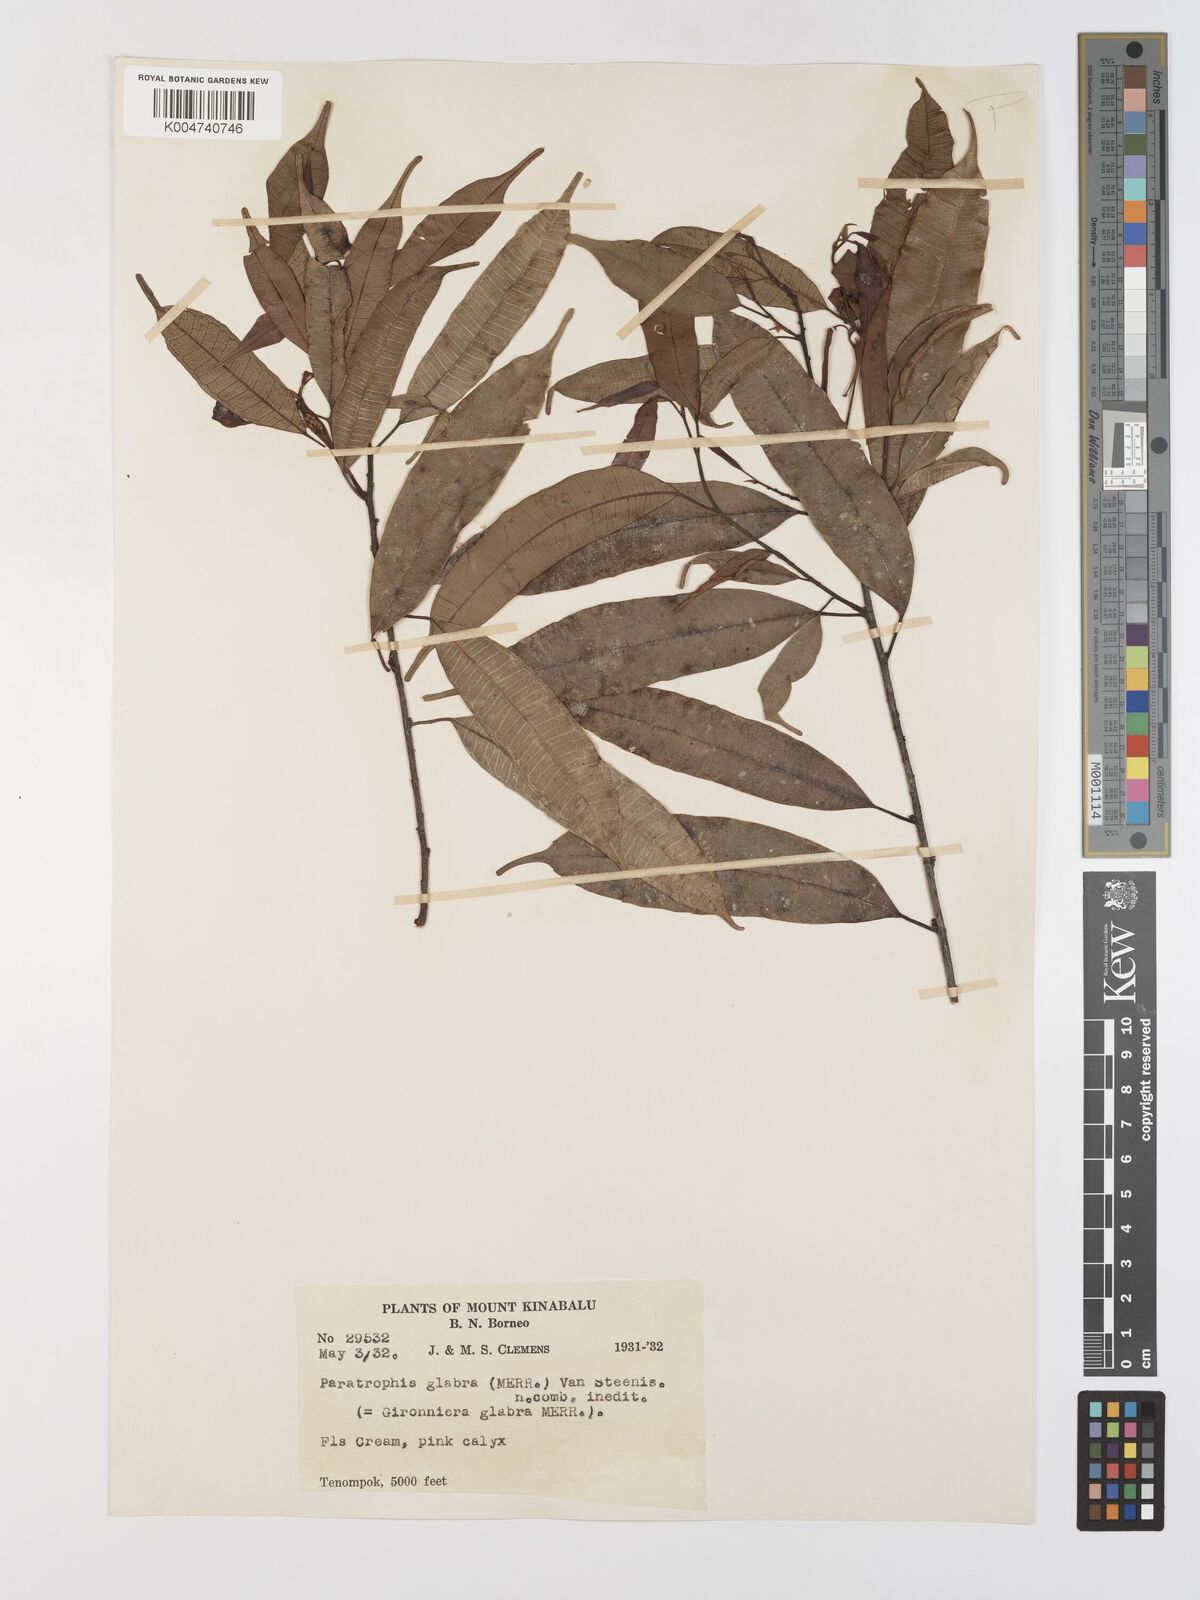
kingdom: Plantae
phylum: Tracheophyta
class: Magnoliopsida
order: Rosales
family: Moraceae
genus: Paratrophis
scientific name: Paratrophis glabra
